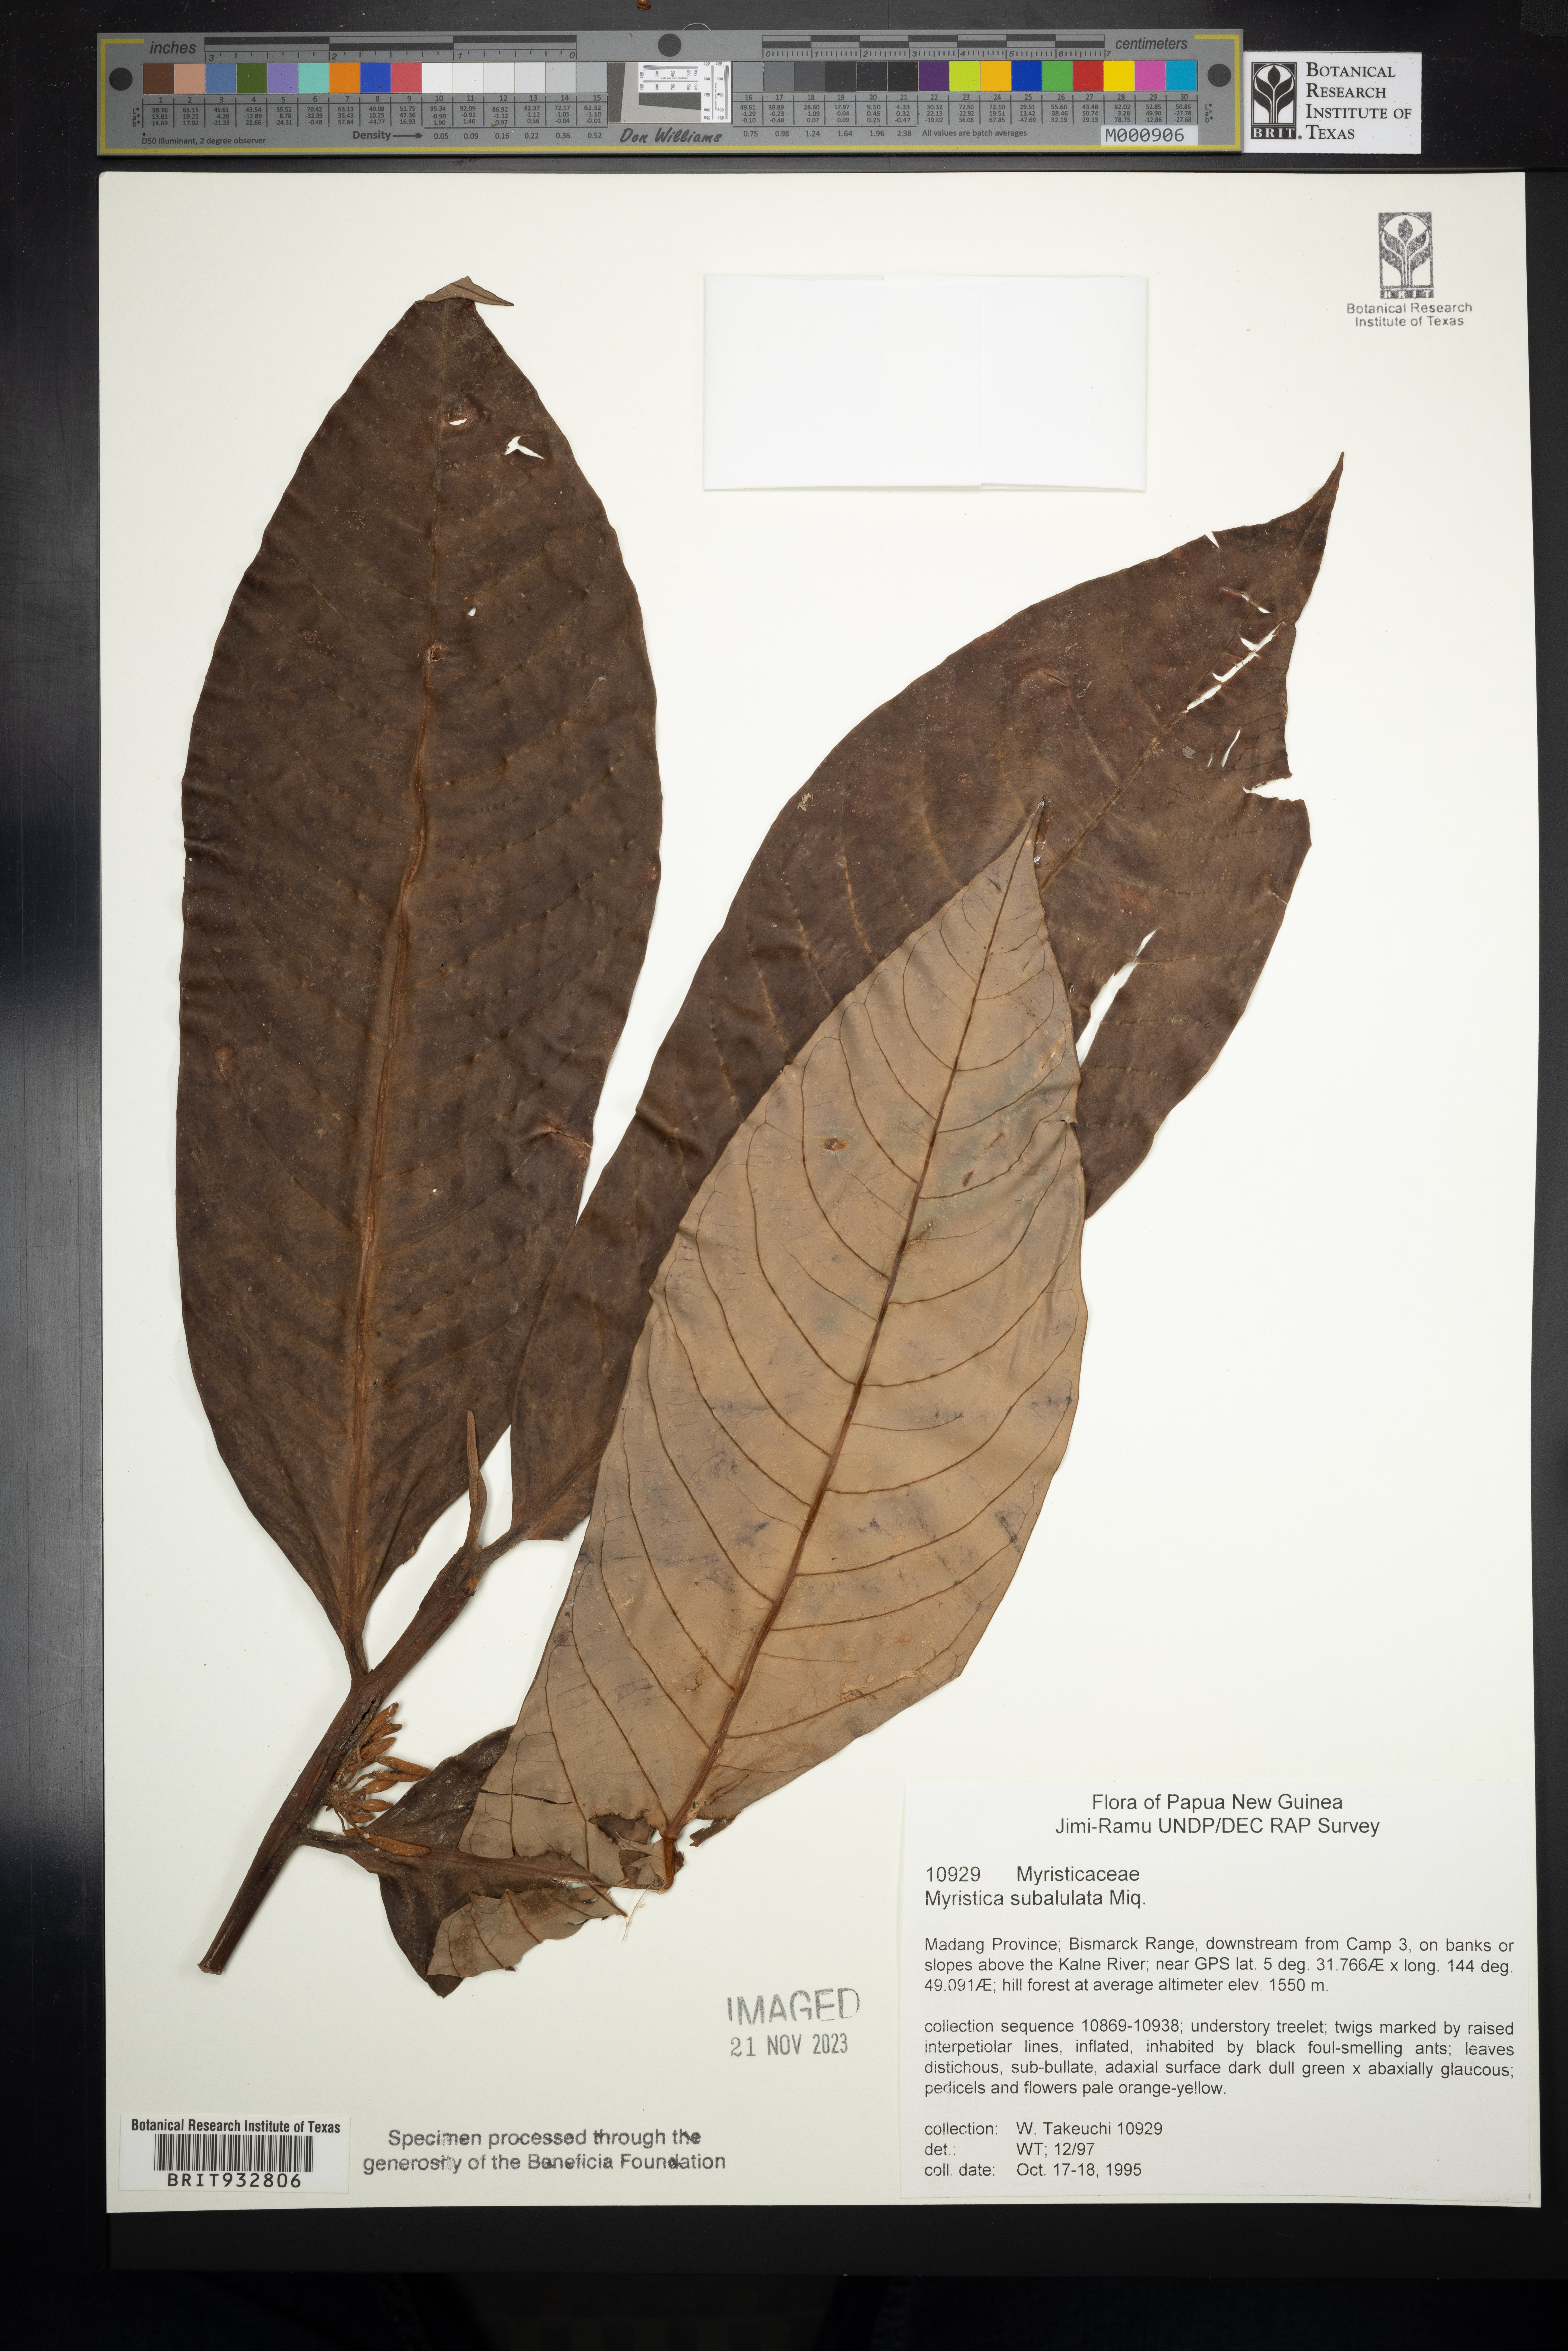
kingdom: Plantae
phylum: Tracheophyta
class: Magnoliopsida
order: Magnoliales
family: Myristicaceae
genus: Myristica
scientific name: Myristica
